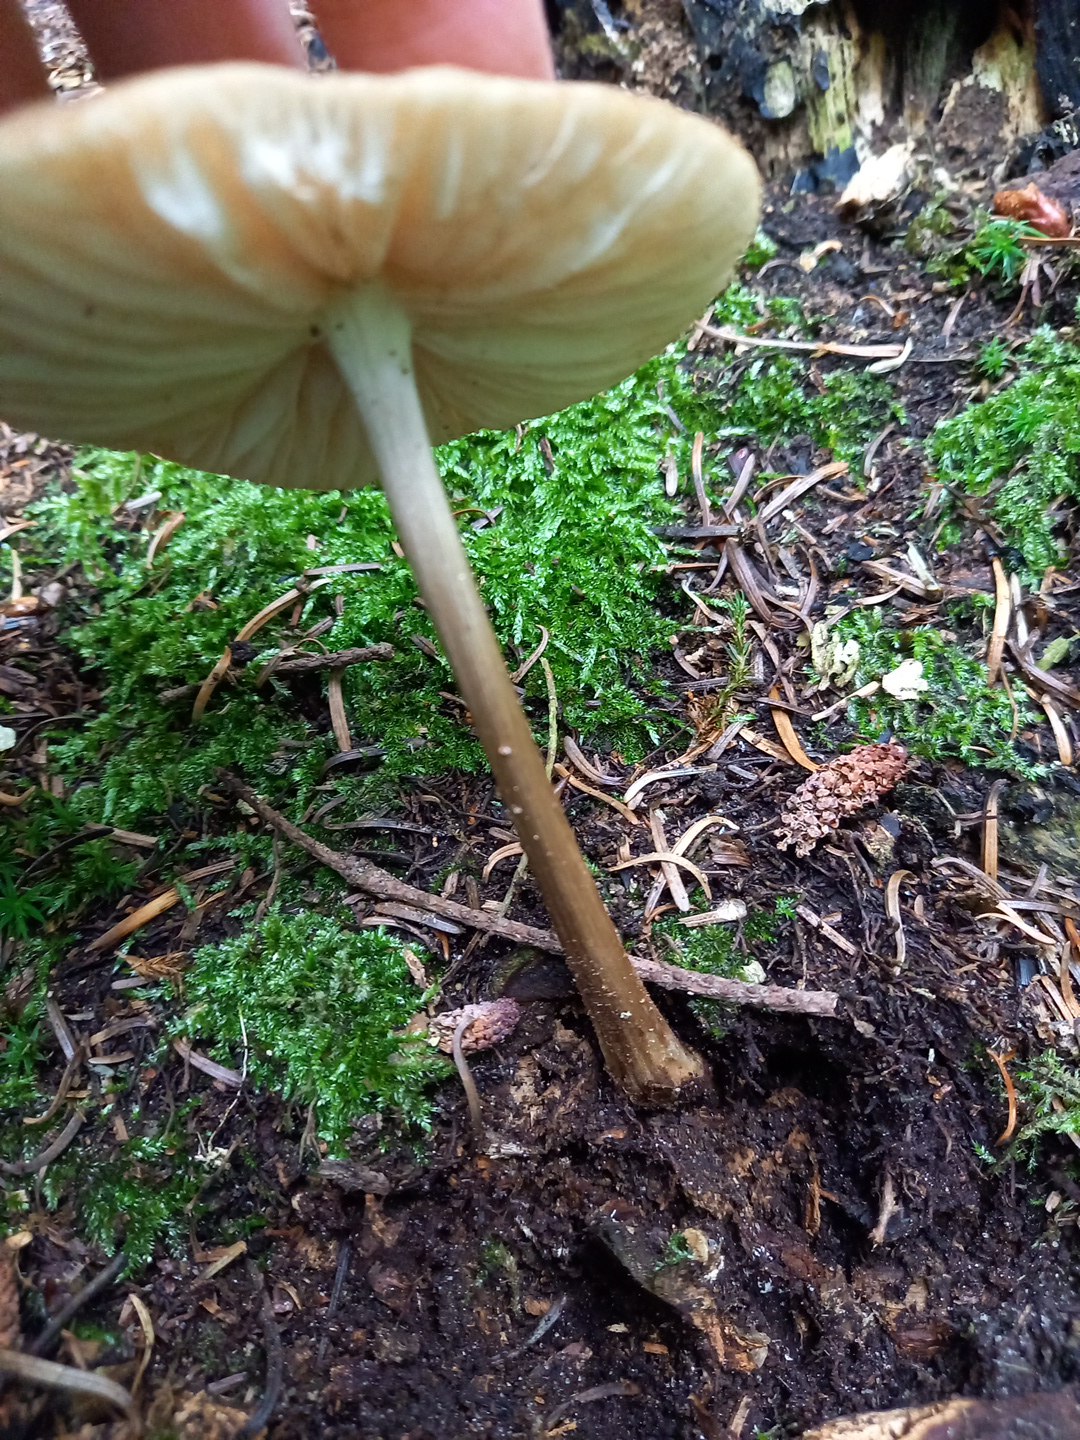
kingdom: Fungi
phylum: Basidiomycota
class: Agaricomycetes
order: Agaricales
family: Physalacriaceae
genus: Hymenopellis
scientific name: Hymenopellis radicata
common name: almindelig pælerodshat
